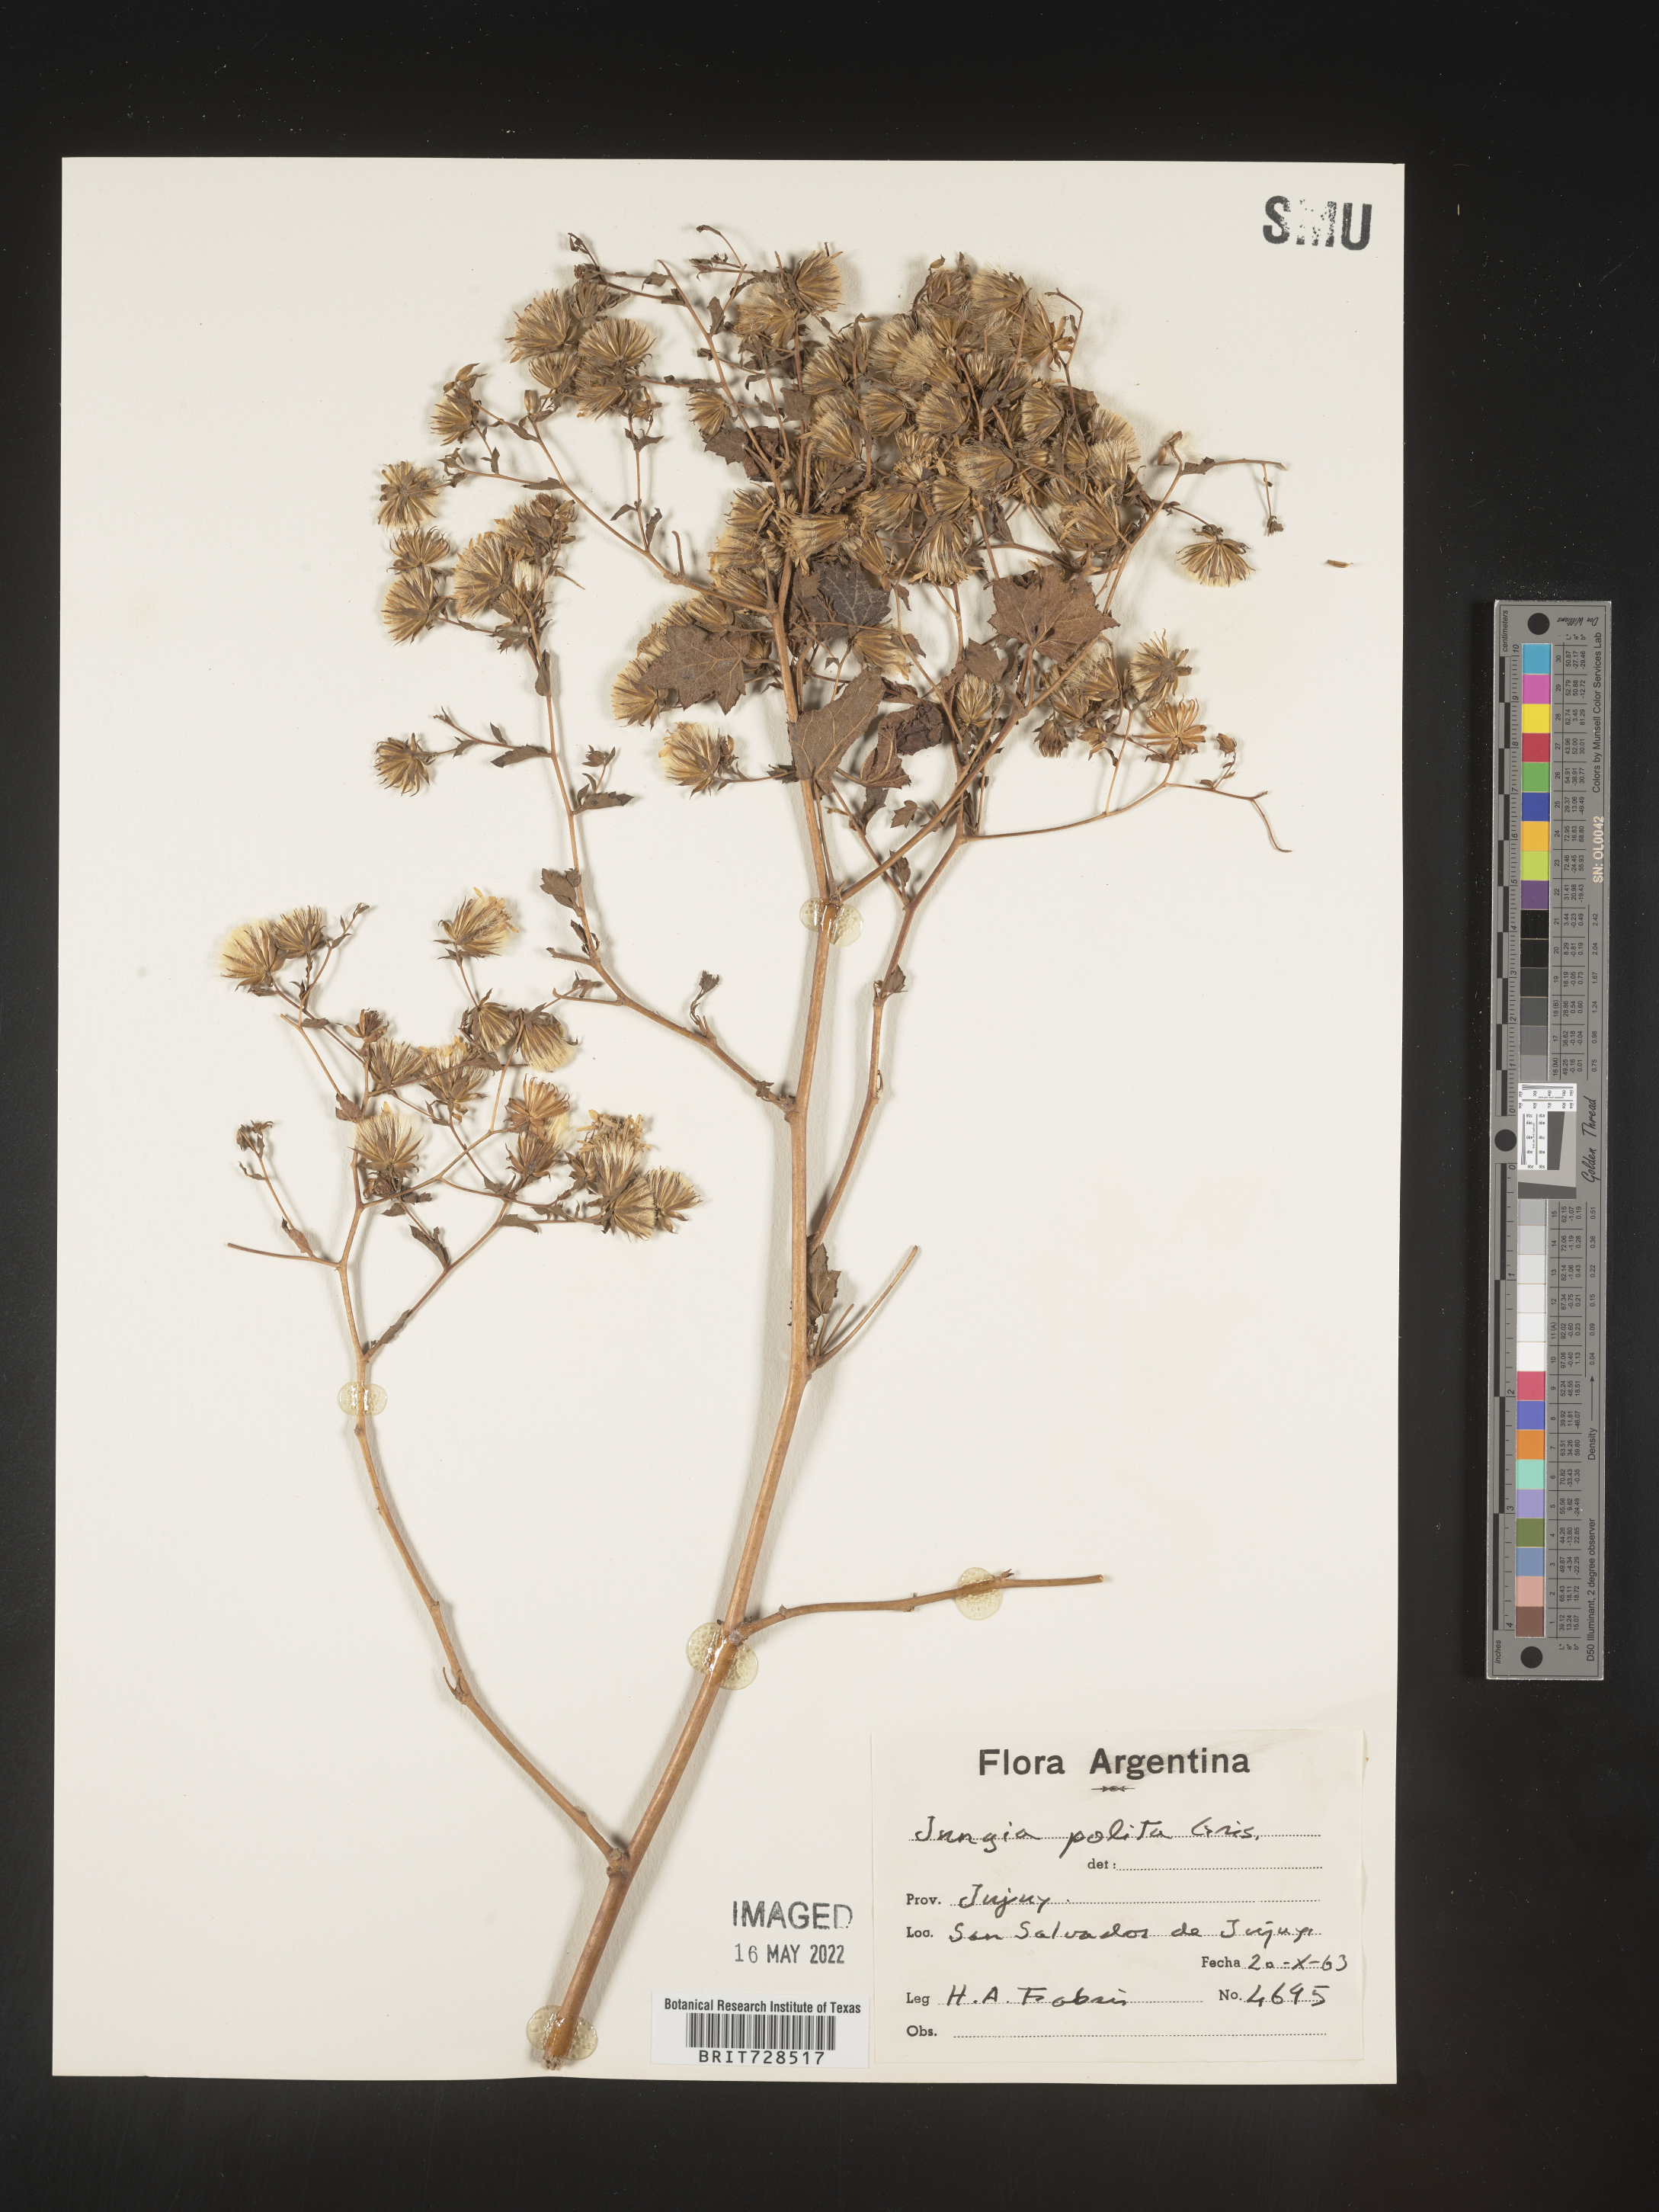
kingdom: Plantae
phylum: Tracheophyta
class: Magnoliopsida
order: Asterales
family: Asteraceae
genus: Jungia
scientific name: Jungia
